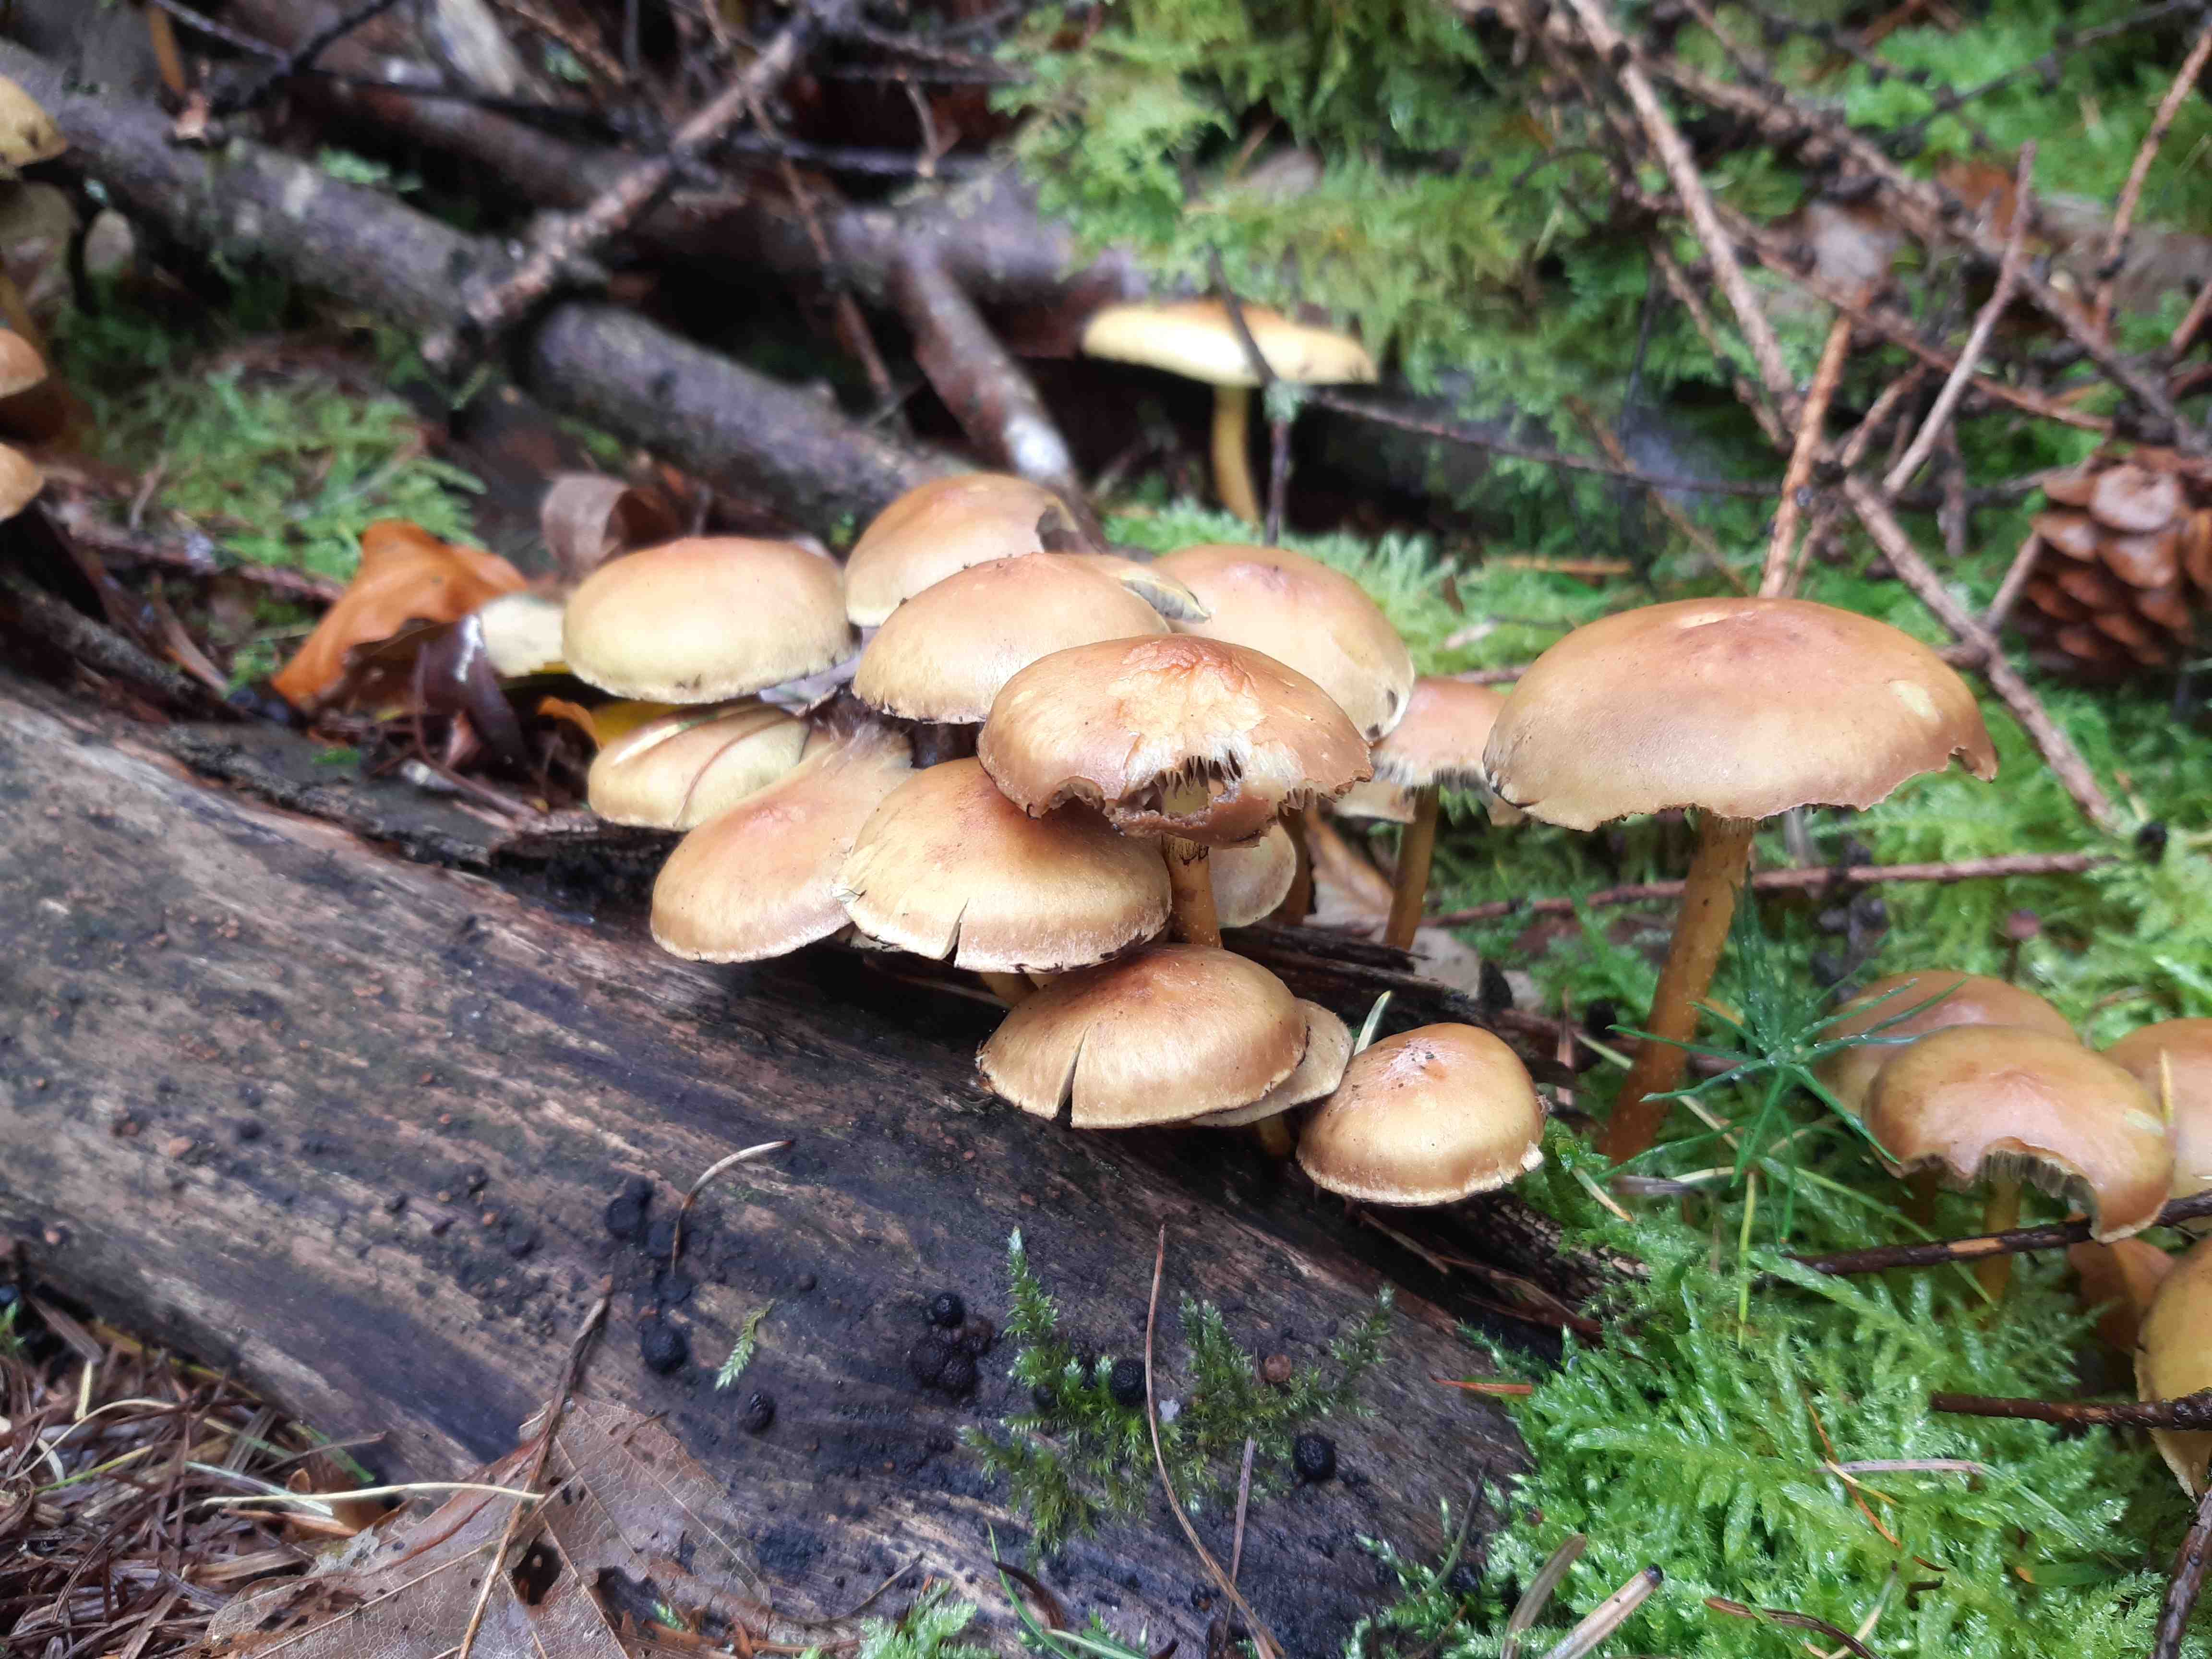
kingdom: Fungi
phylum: Basidiomycota
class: Agaricomycetes
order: Agaricales
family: Strophariaceae
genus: Hypholoma
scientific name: Hypholoma
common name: svovlhat
